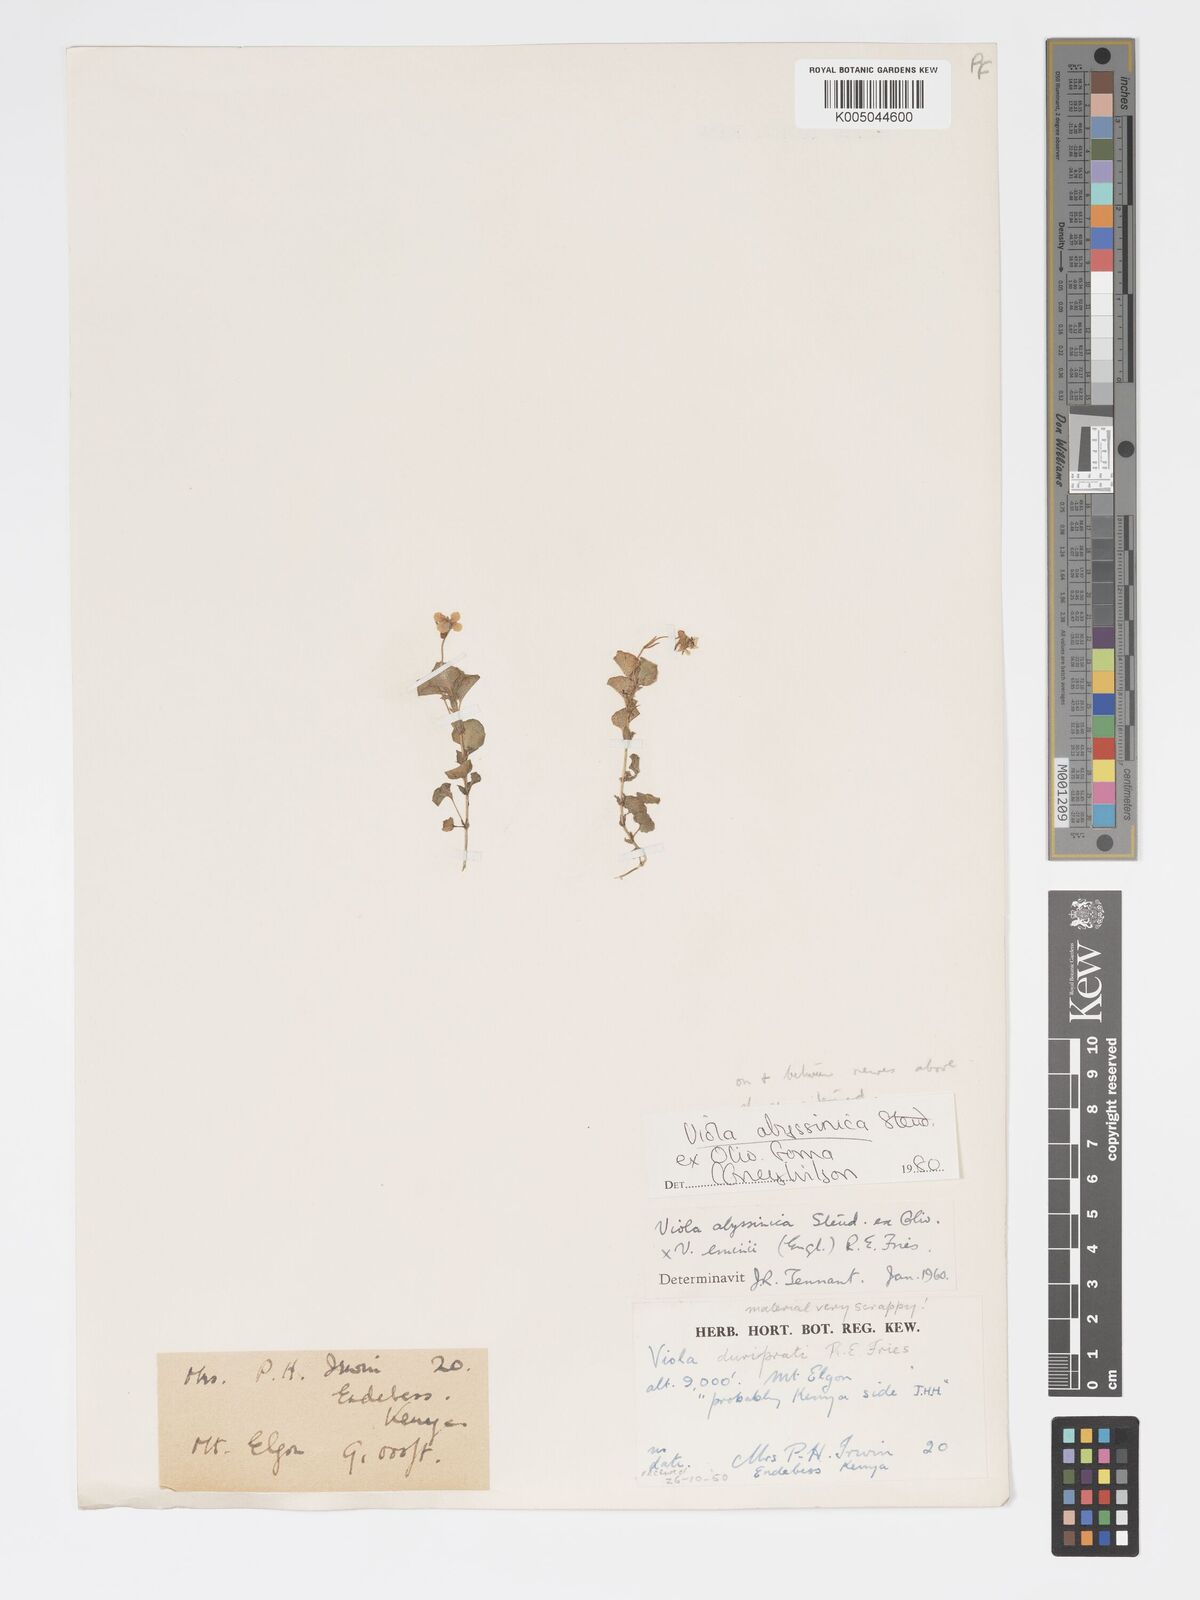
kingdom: Plantae
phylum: Tracheophyta
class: Magnoliopsida
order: Malpighiales
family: Violaceae
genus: Viola
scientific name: Viola abyssinica
